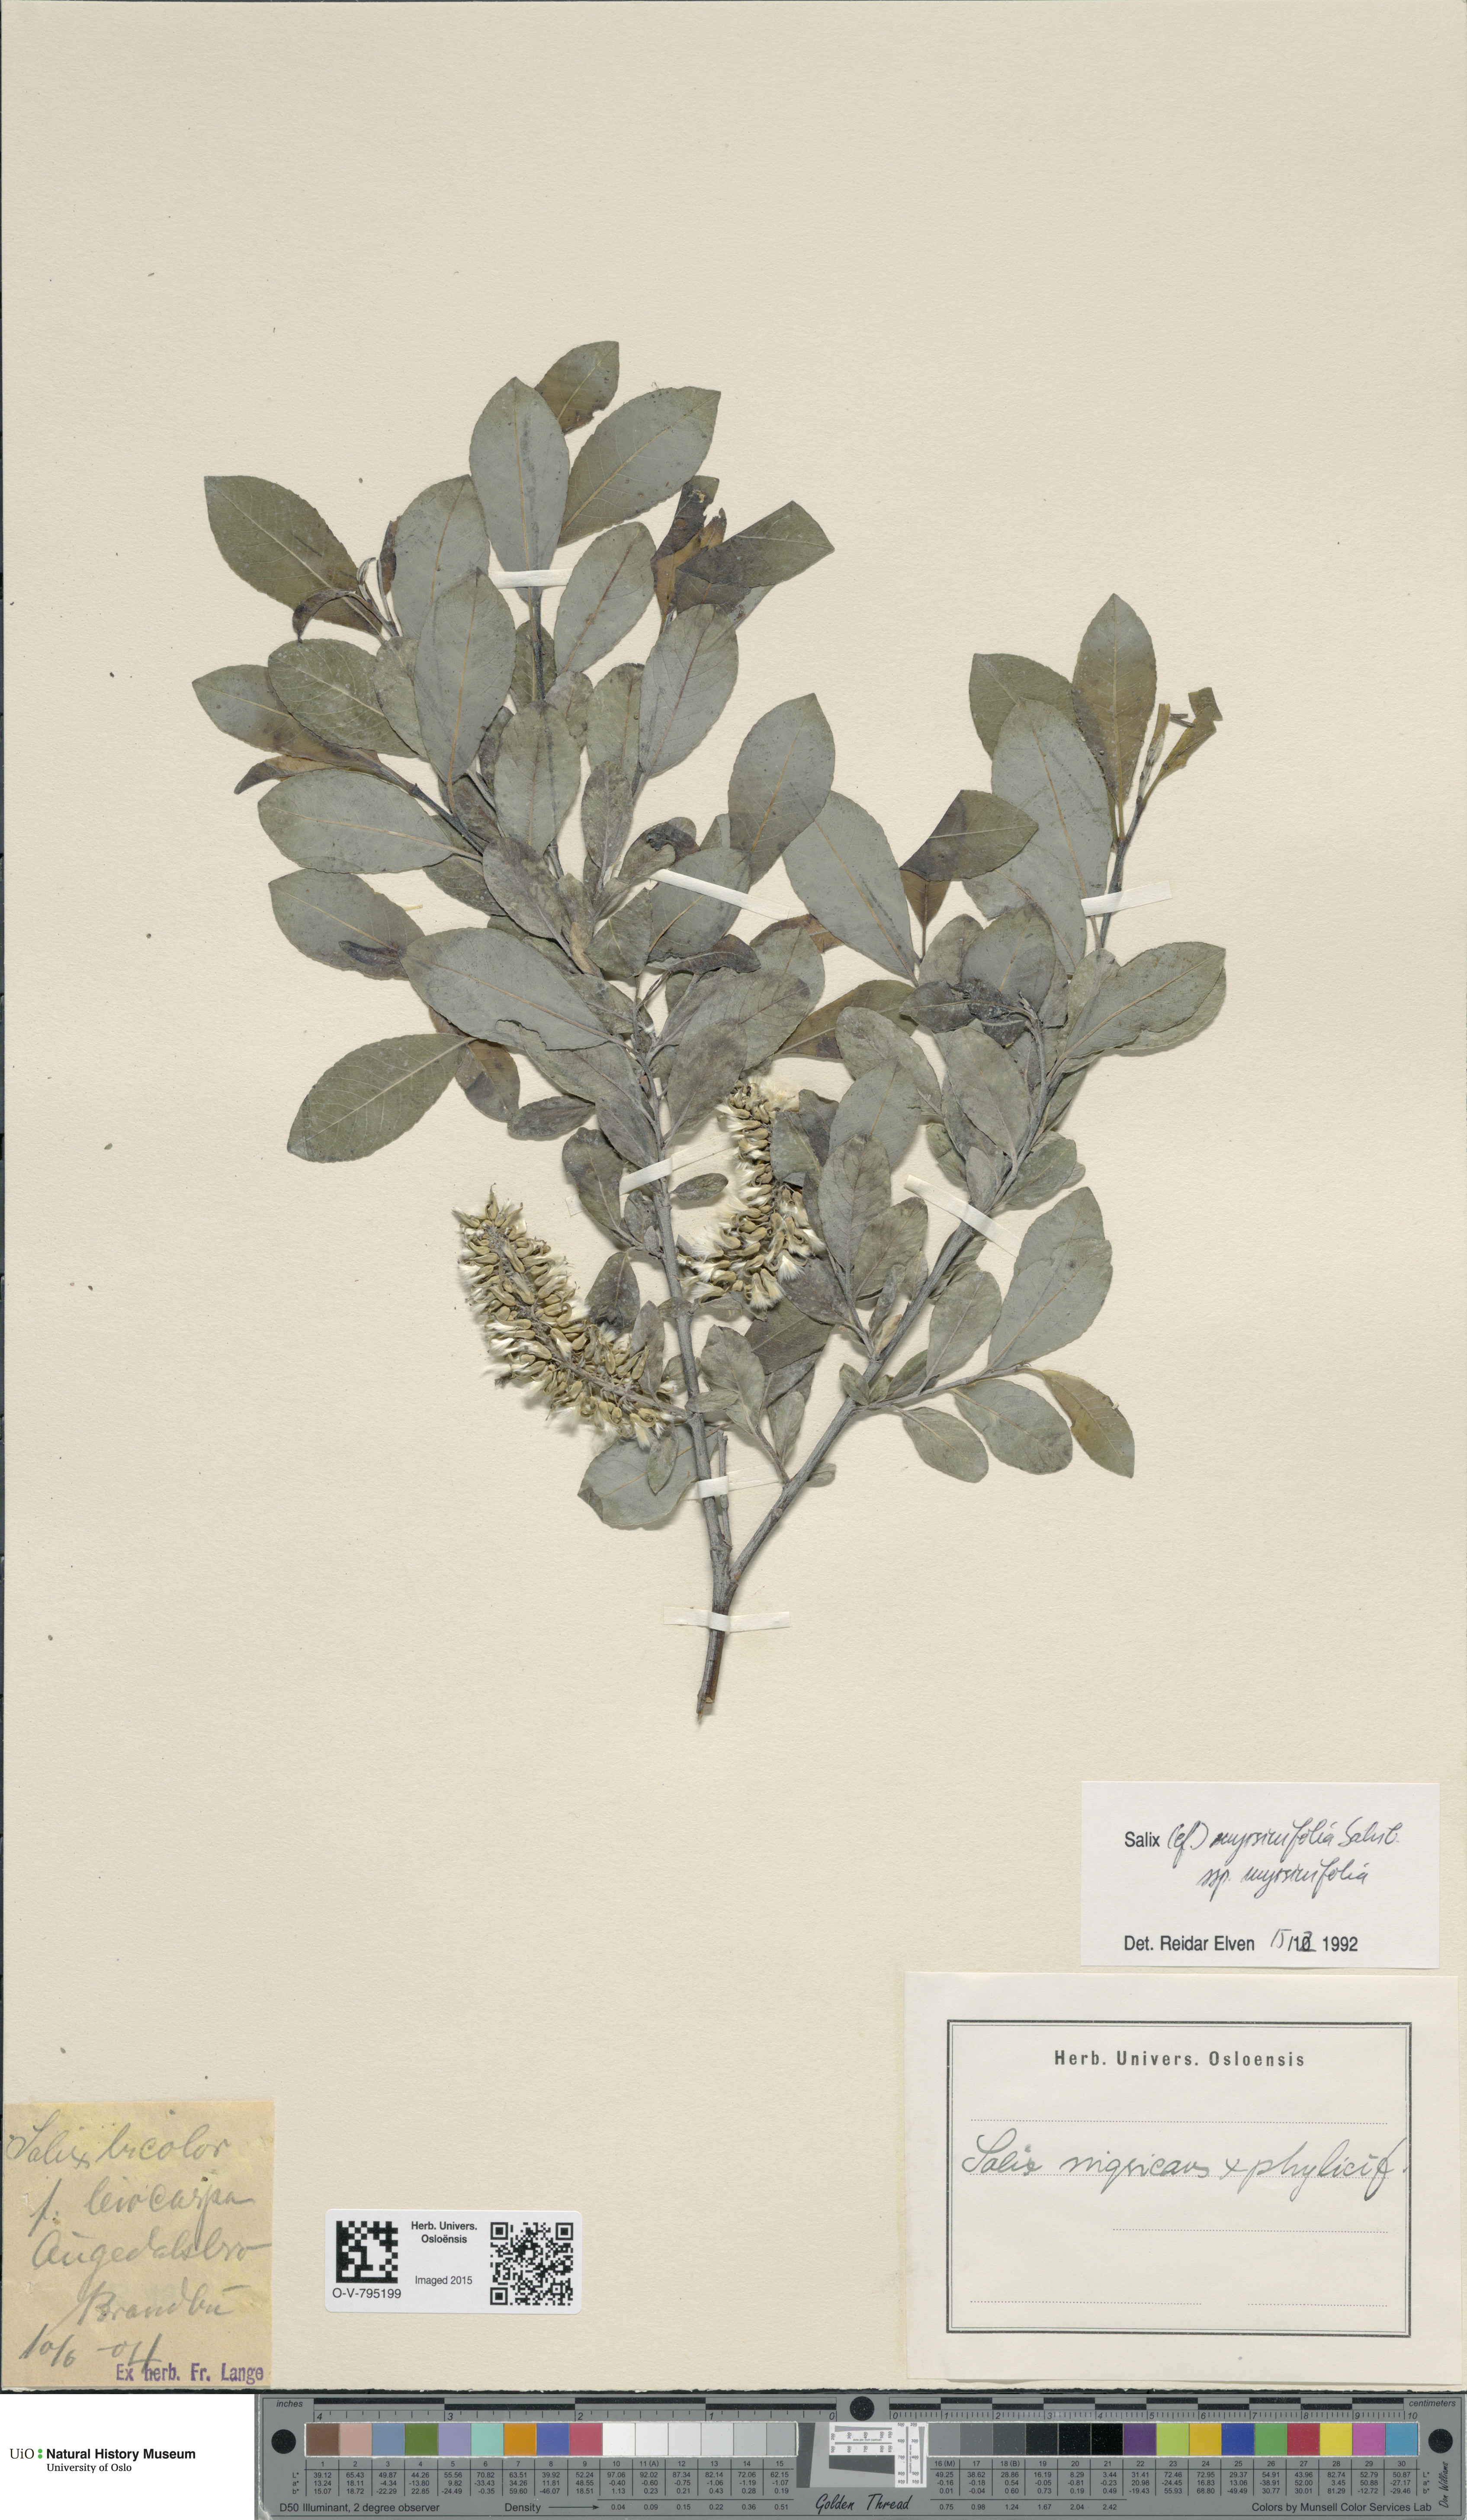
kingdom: Plantae
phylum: Tracheophyta
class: Magnoliopsida
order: Malpighiales
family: Salicaceae
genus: Salix
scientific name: Salix myrsinifolia
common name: Dark-leaved willow
